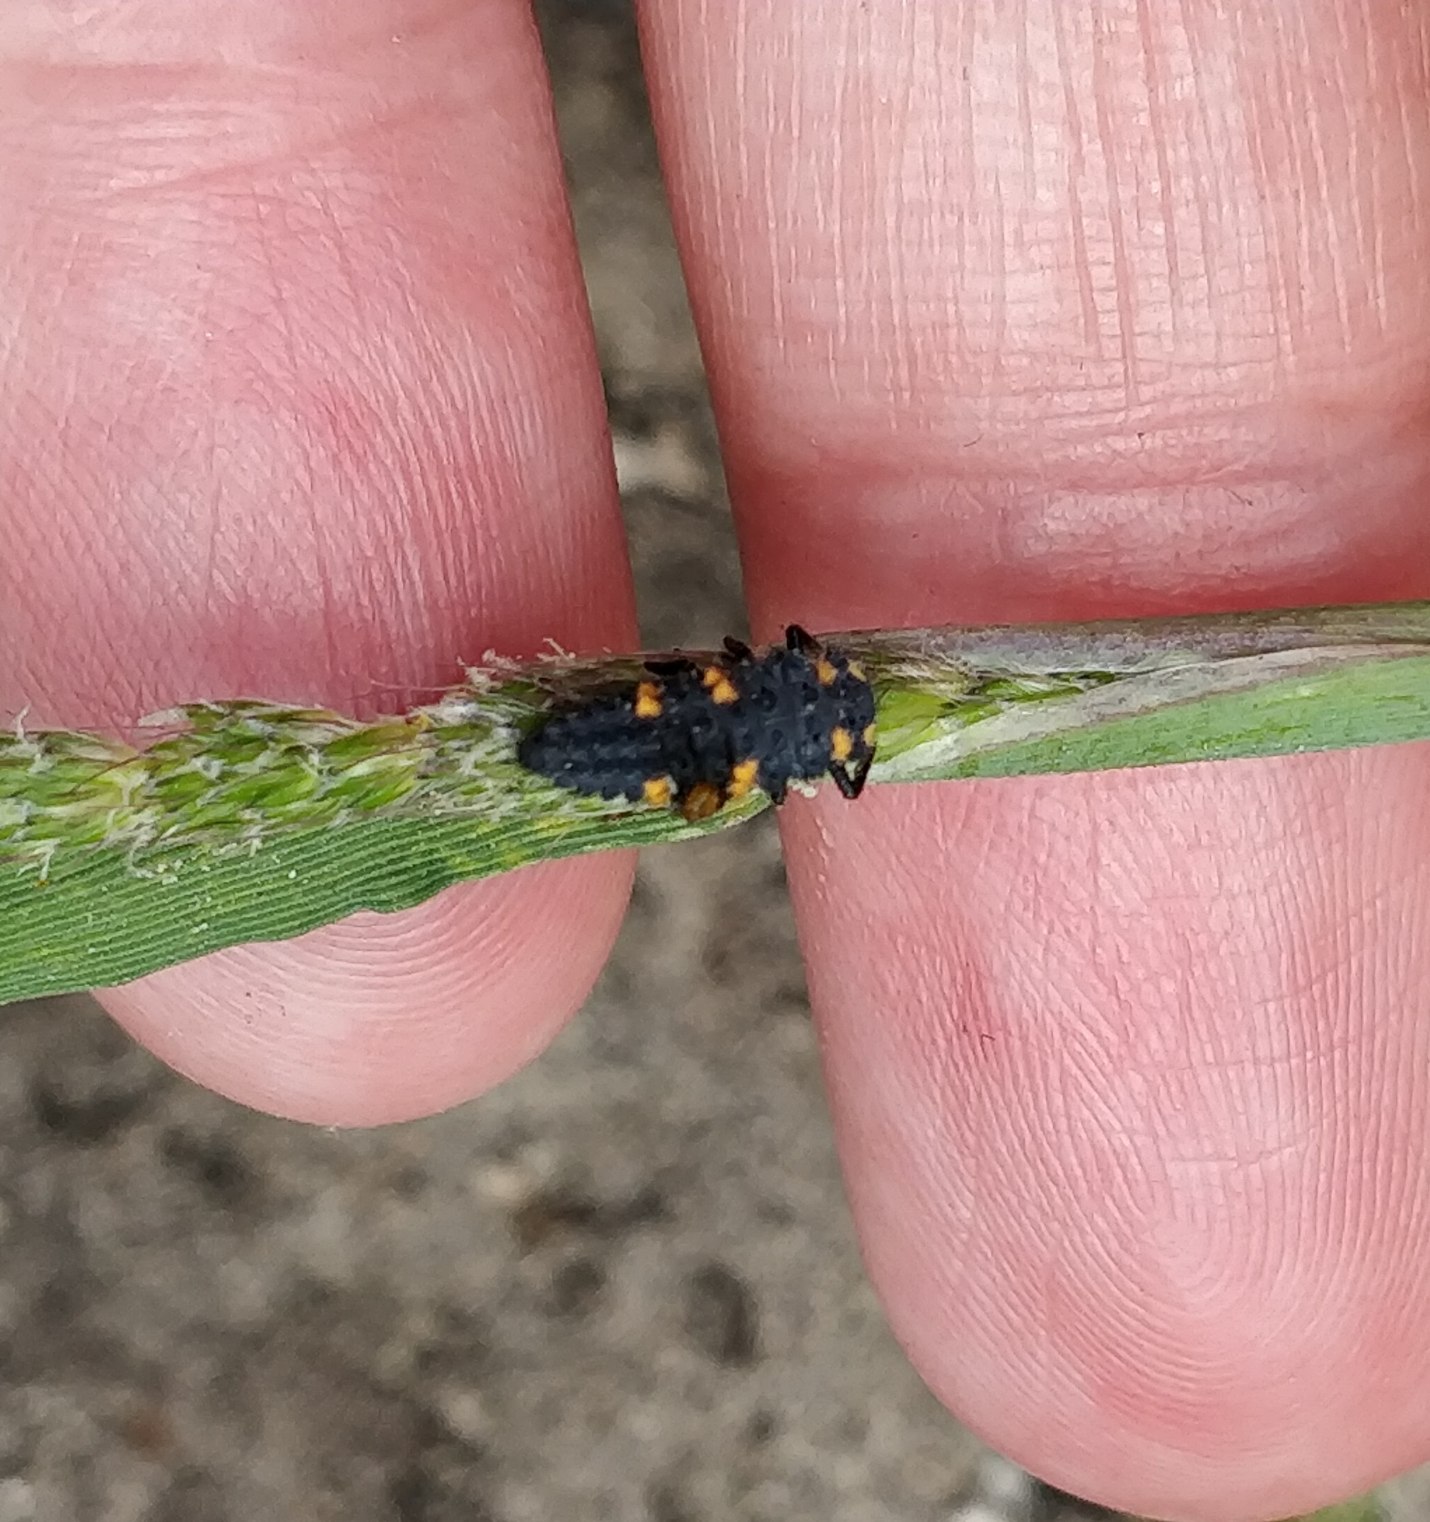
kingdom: Animalia
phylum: Arthropoda
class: Insecta
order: Coleoptera
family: Coccinellidae
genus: Coccinella
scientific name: Coccinella septempunctata
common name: Syvplettet mariehøne
